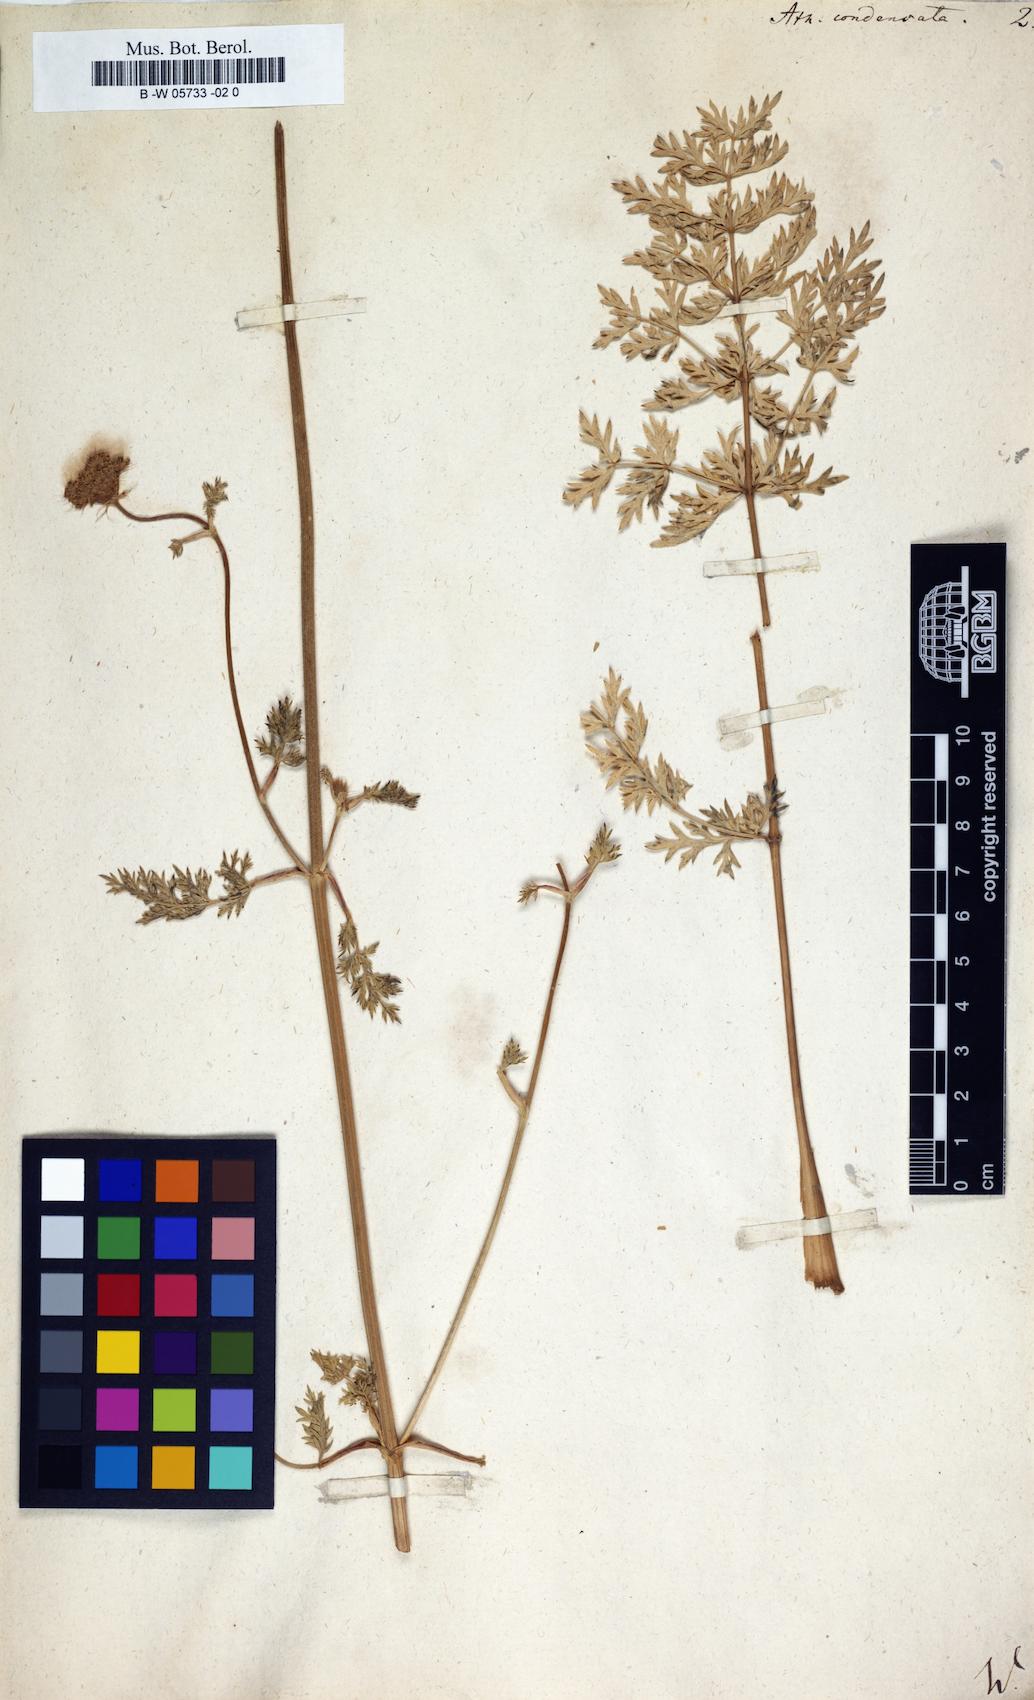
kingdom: Plantae
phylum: Tracheophyta
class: Magnoliopsida
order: Apiales
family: Apiaceae
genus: Seseli
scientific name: Seseli condensatum
